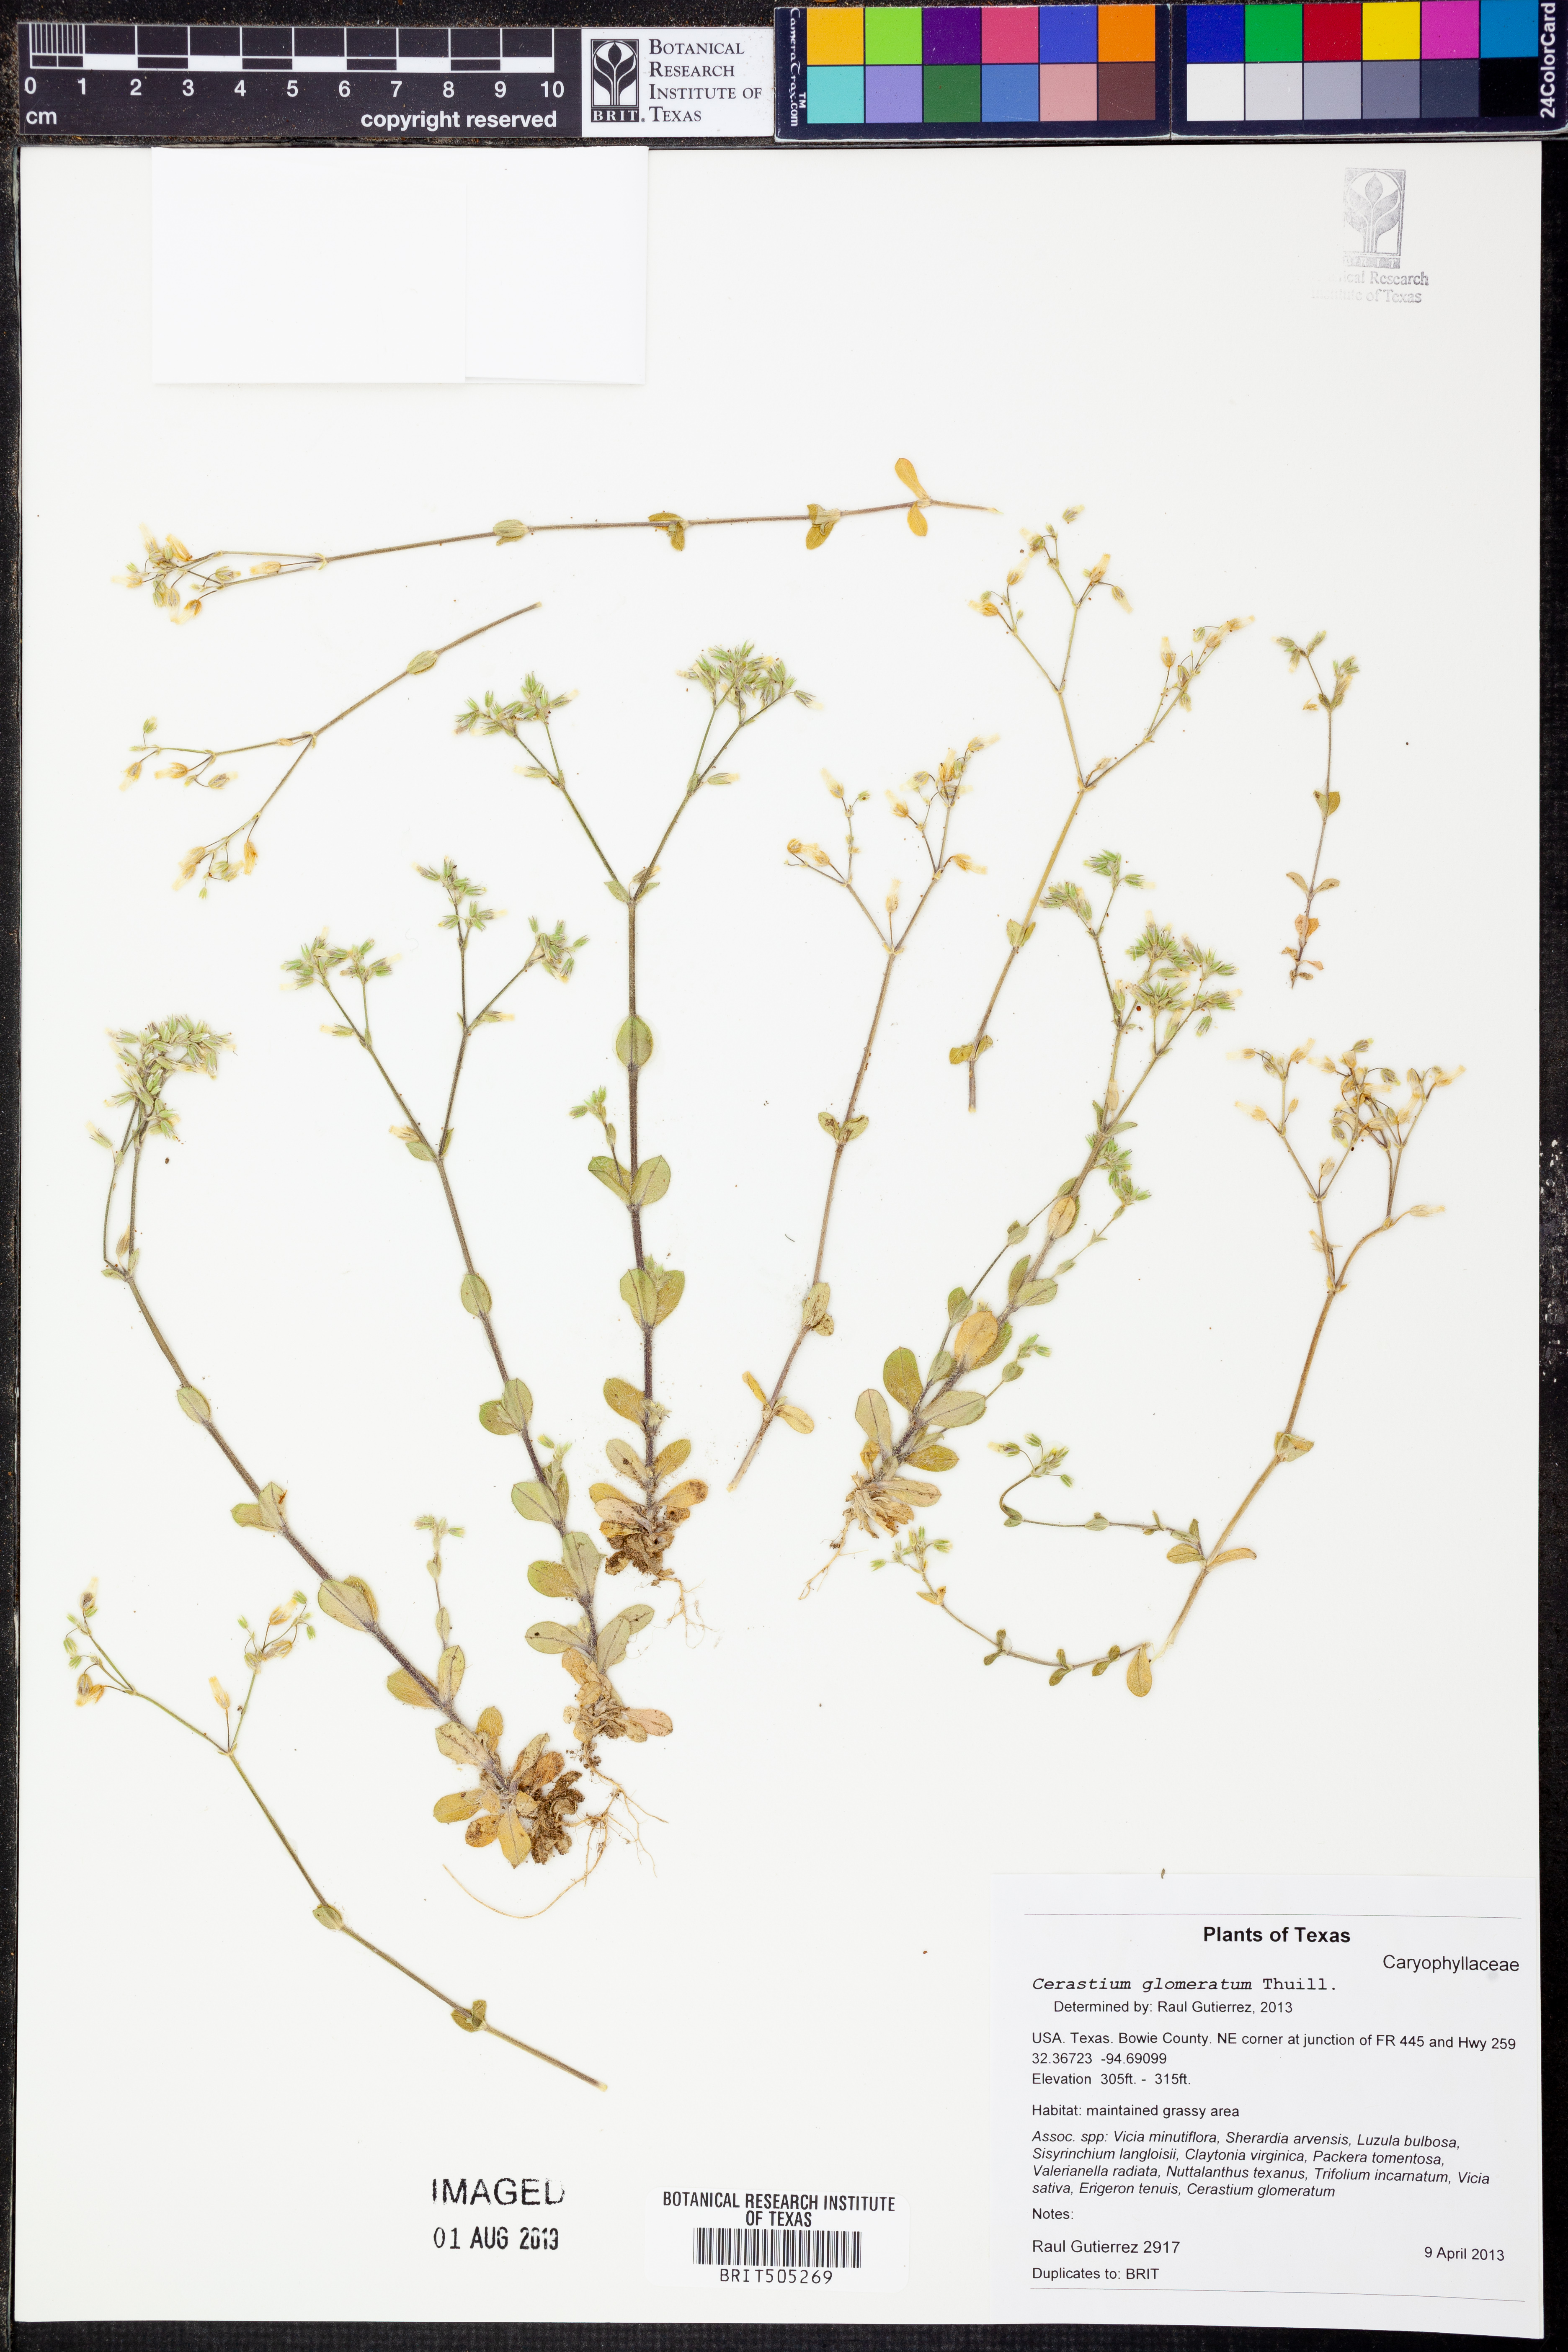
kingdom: Plantae
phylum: Tracheophyta
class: Magnoliopsida
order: Caryophyllales
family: Caryophyllaceae
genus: Cerastium
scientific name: Cerastium glomeratum
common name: Sticky chickweed
